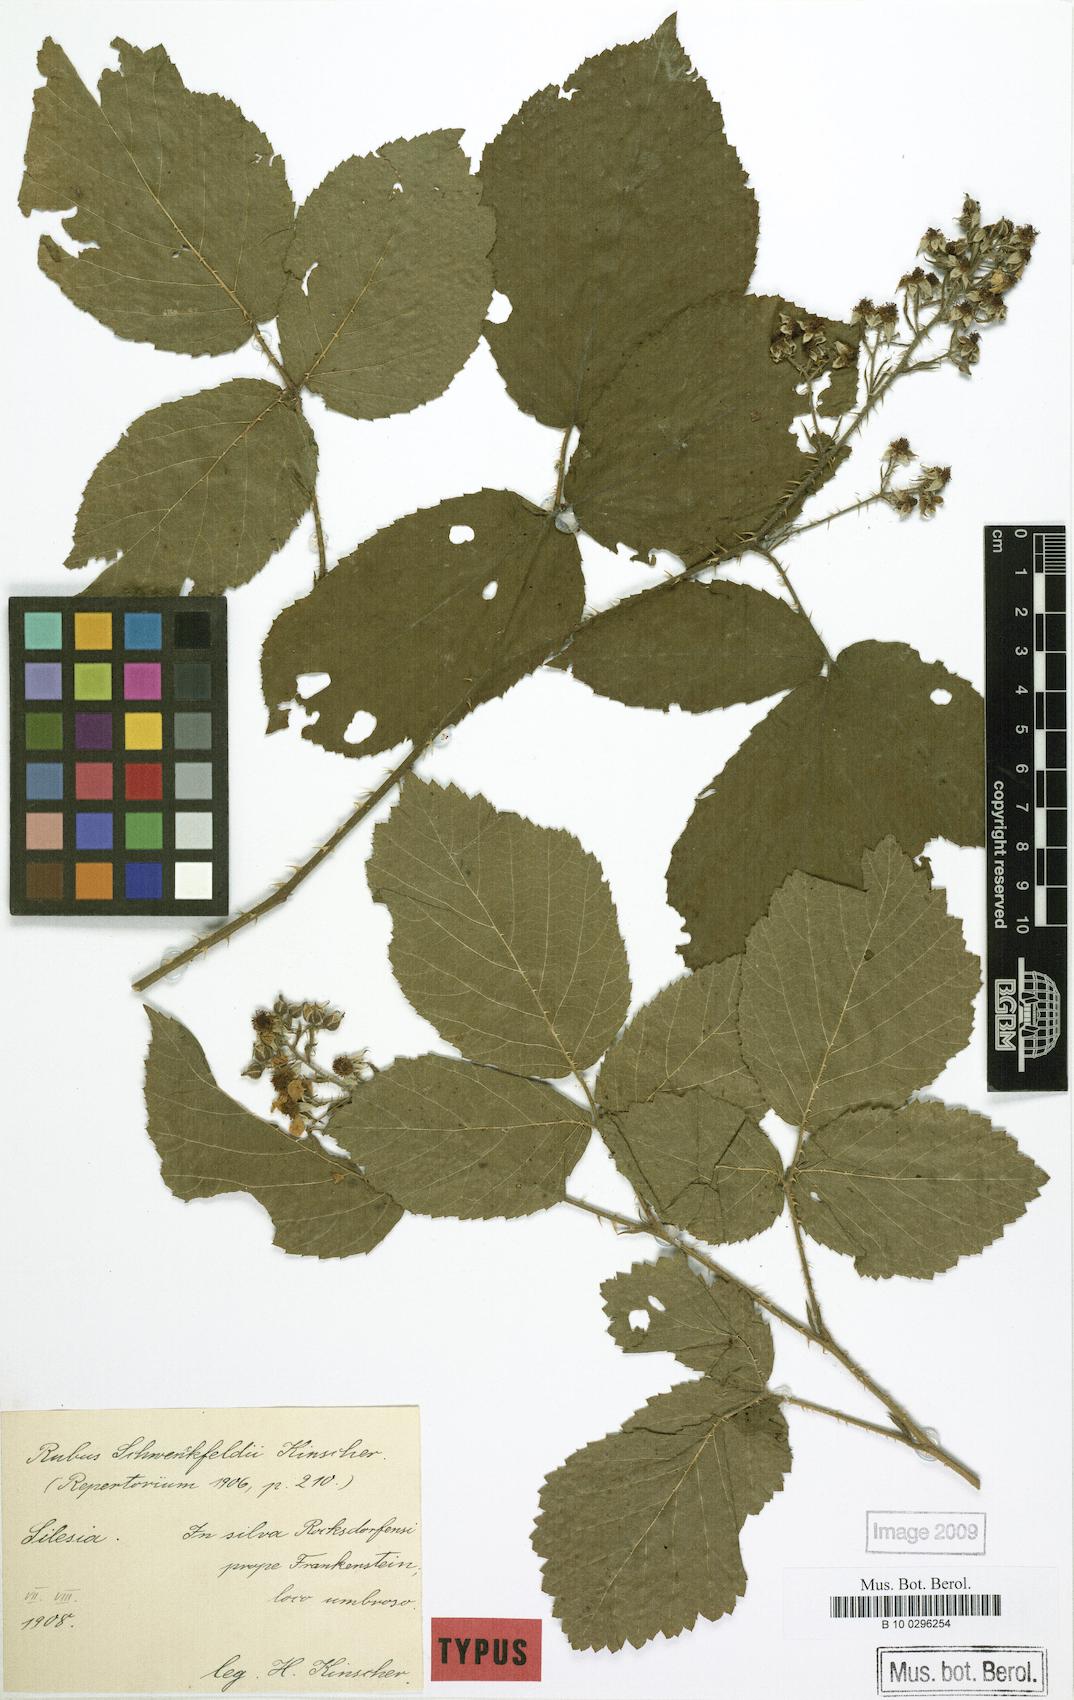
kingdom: Plantae
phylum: Tracheophyta
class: Magnoliopsida
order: Rosales
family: Rosaceae
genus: Rubus
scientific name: Rubus cimbricus
